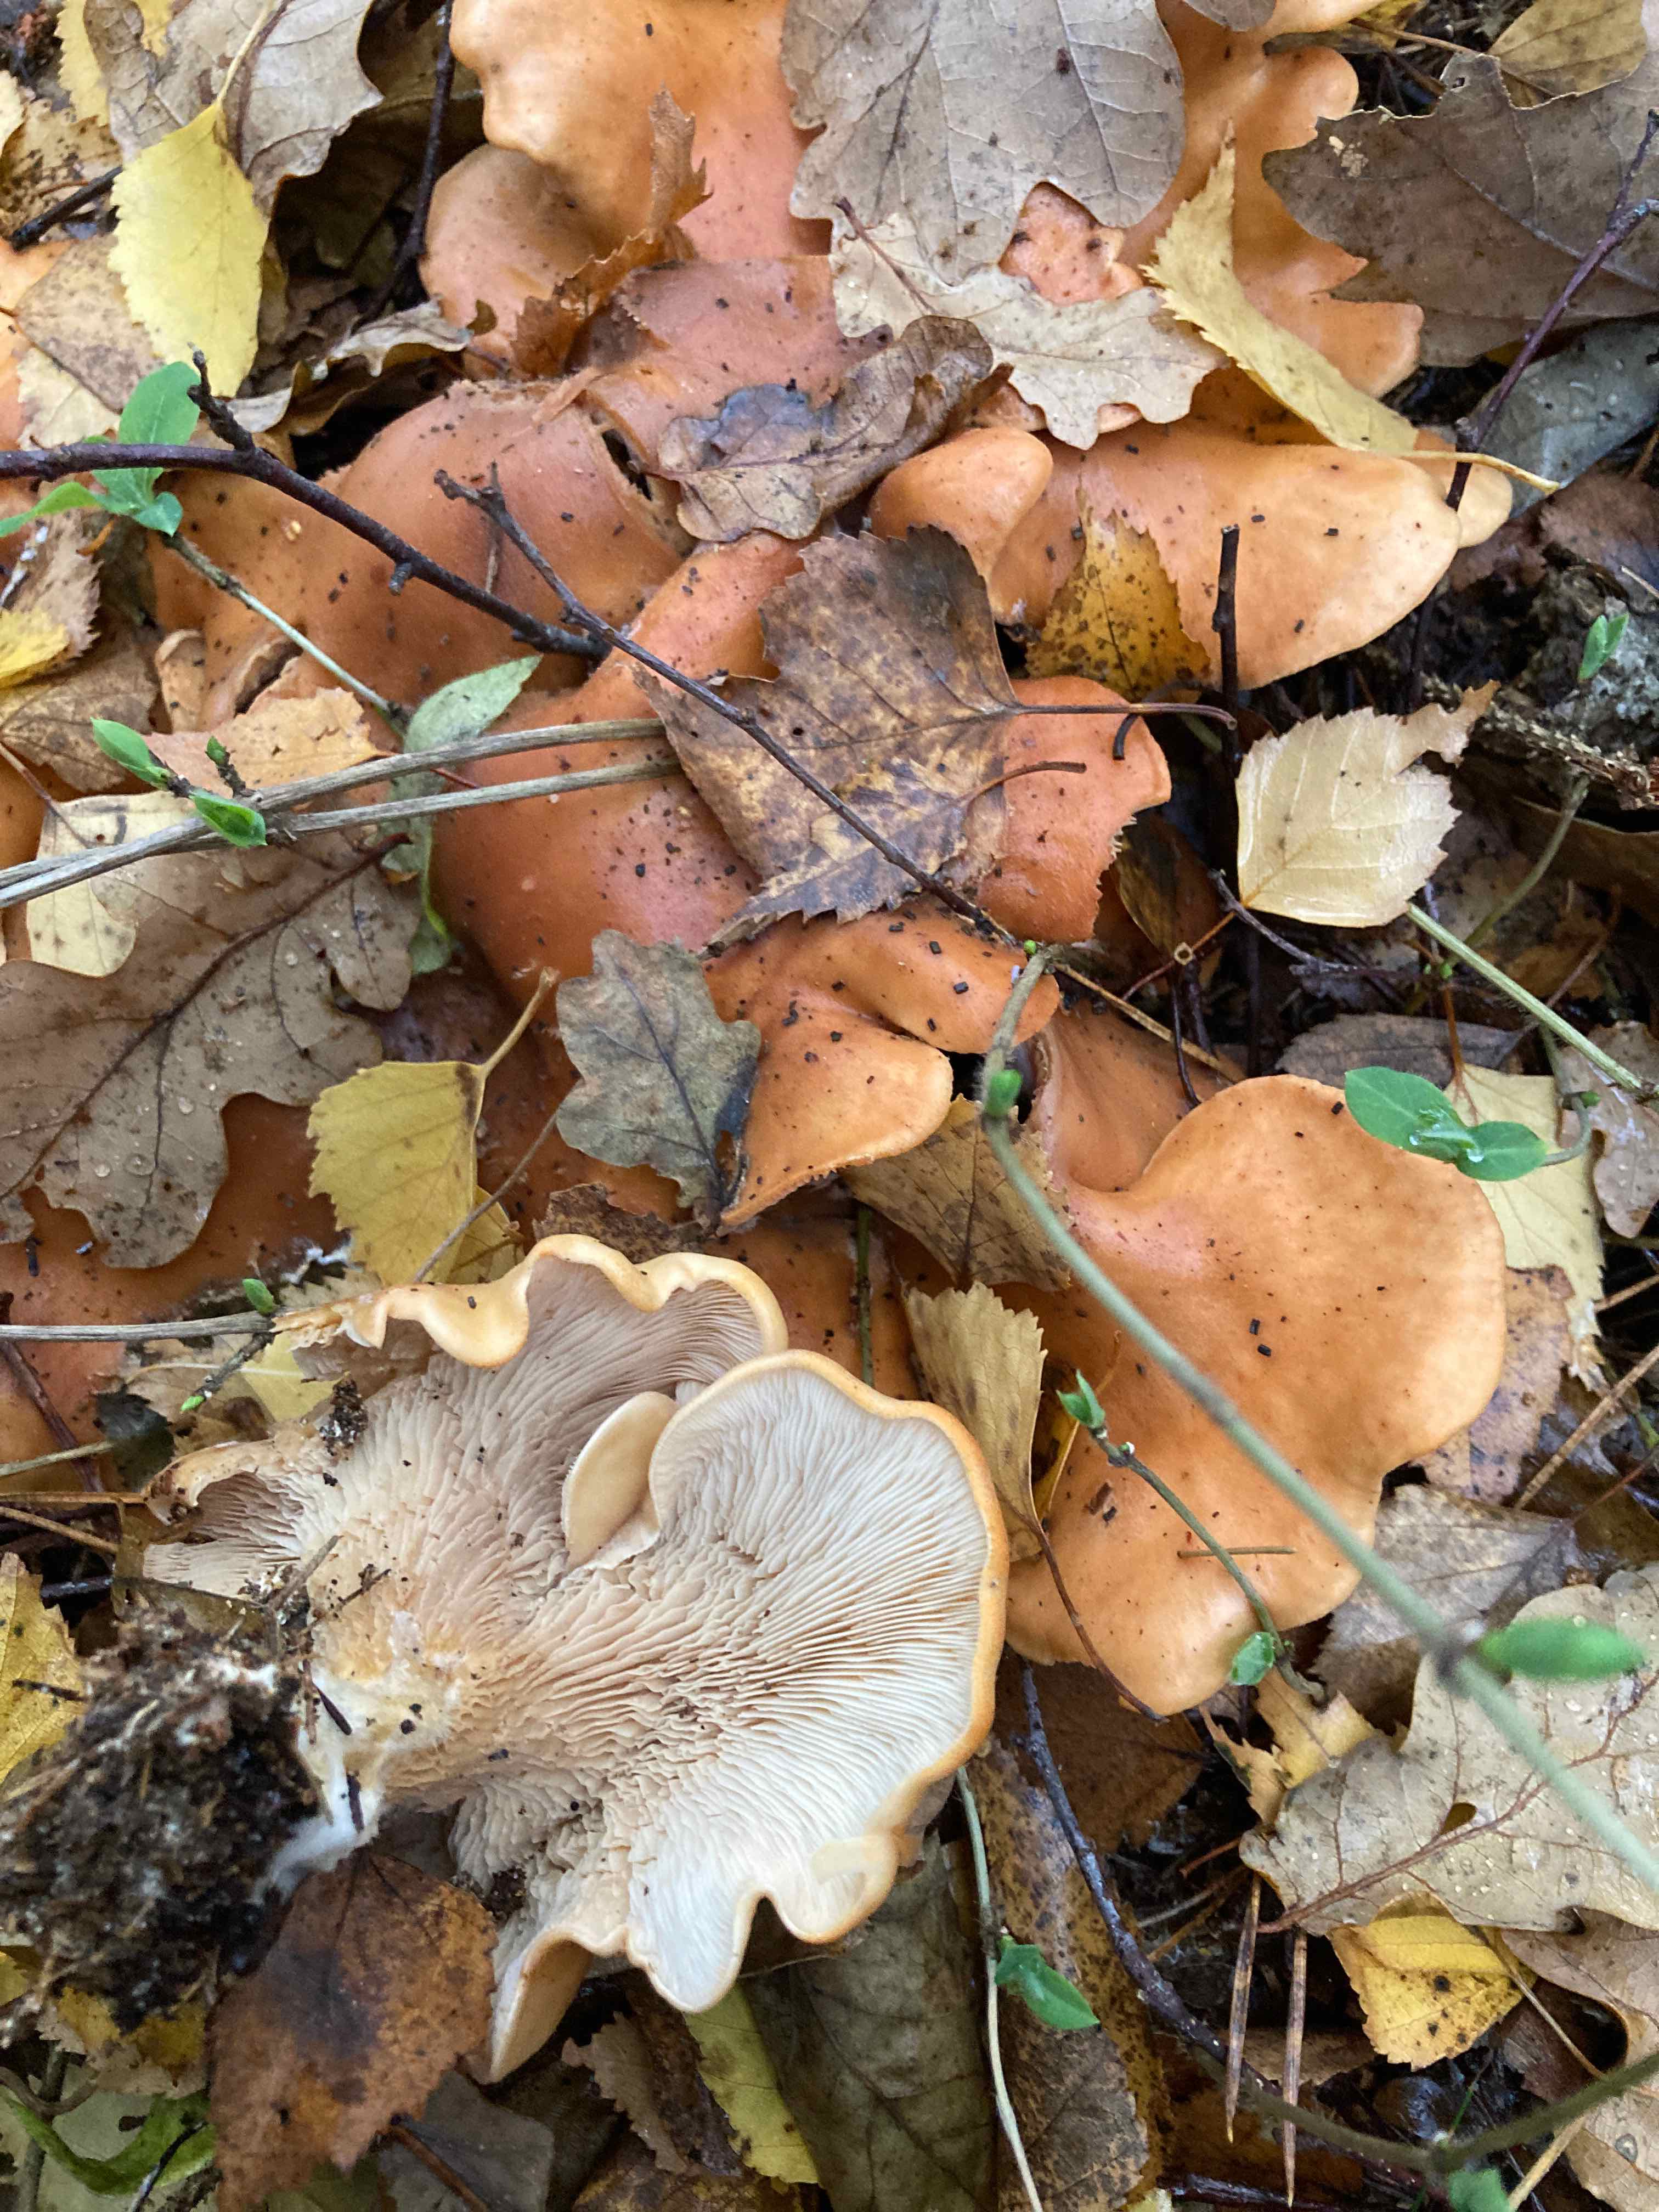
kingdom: Fungi
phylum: Basidiomycota
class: Agaricomycetes
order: Agaricales
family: Tricholomataceae
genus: Paralepista
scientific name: Paralepista flaccida
